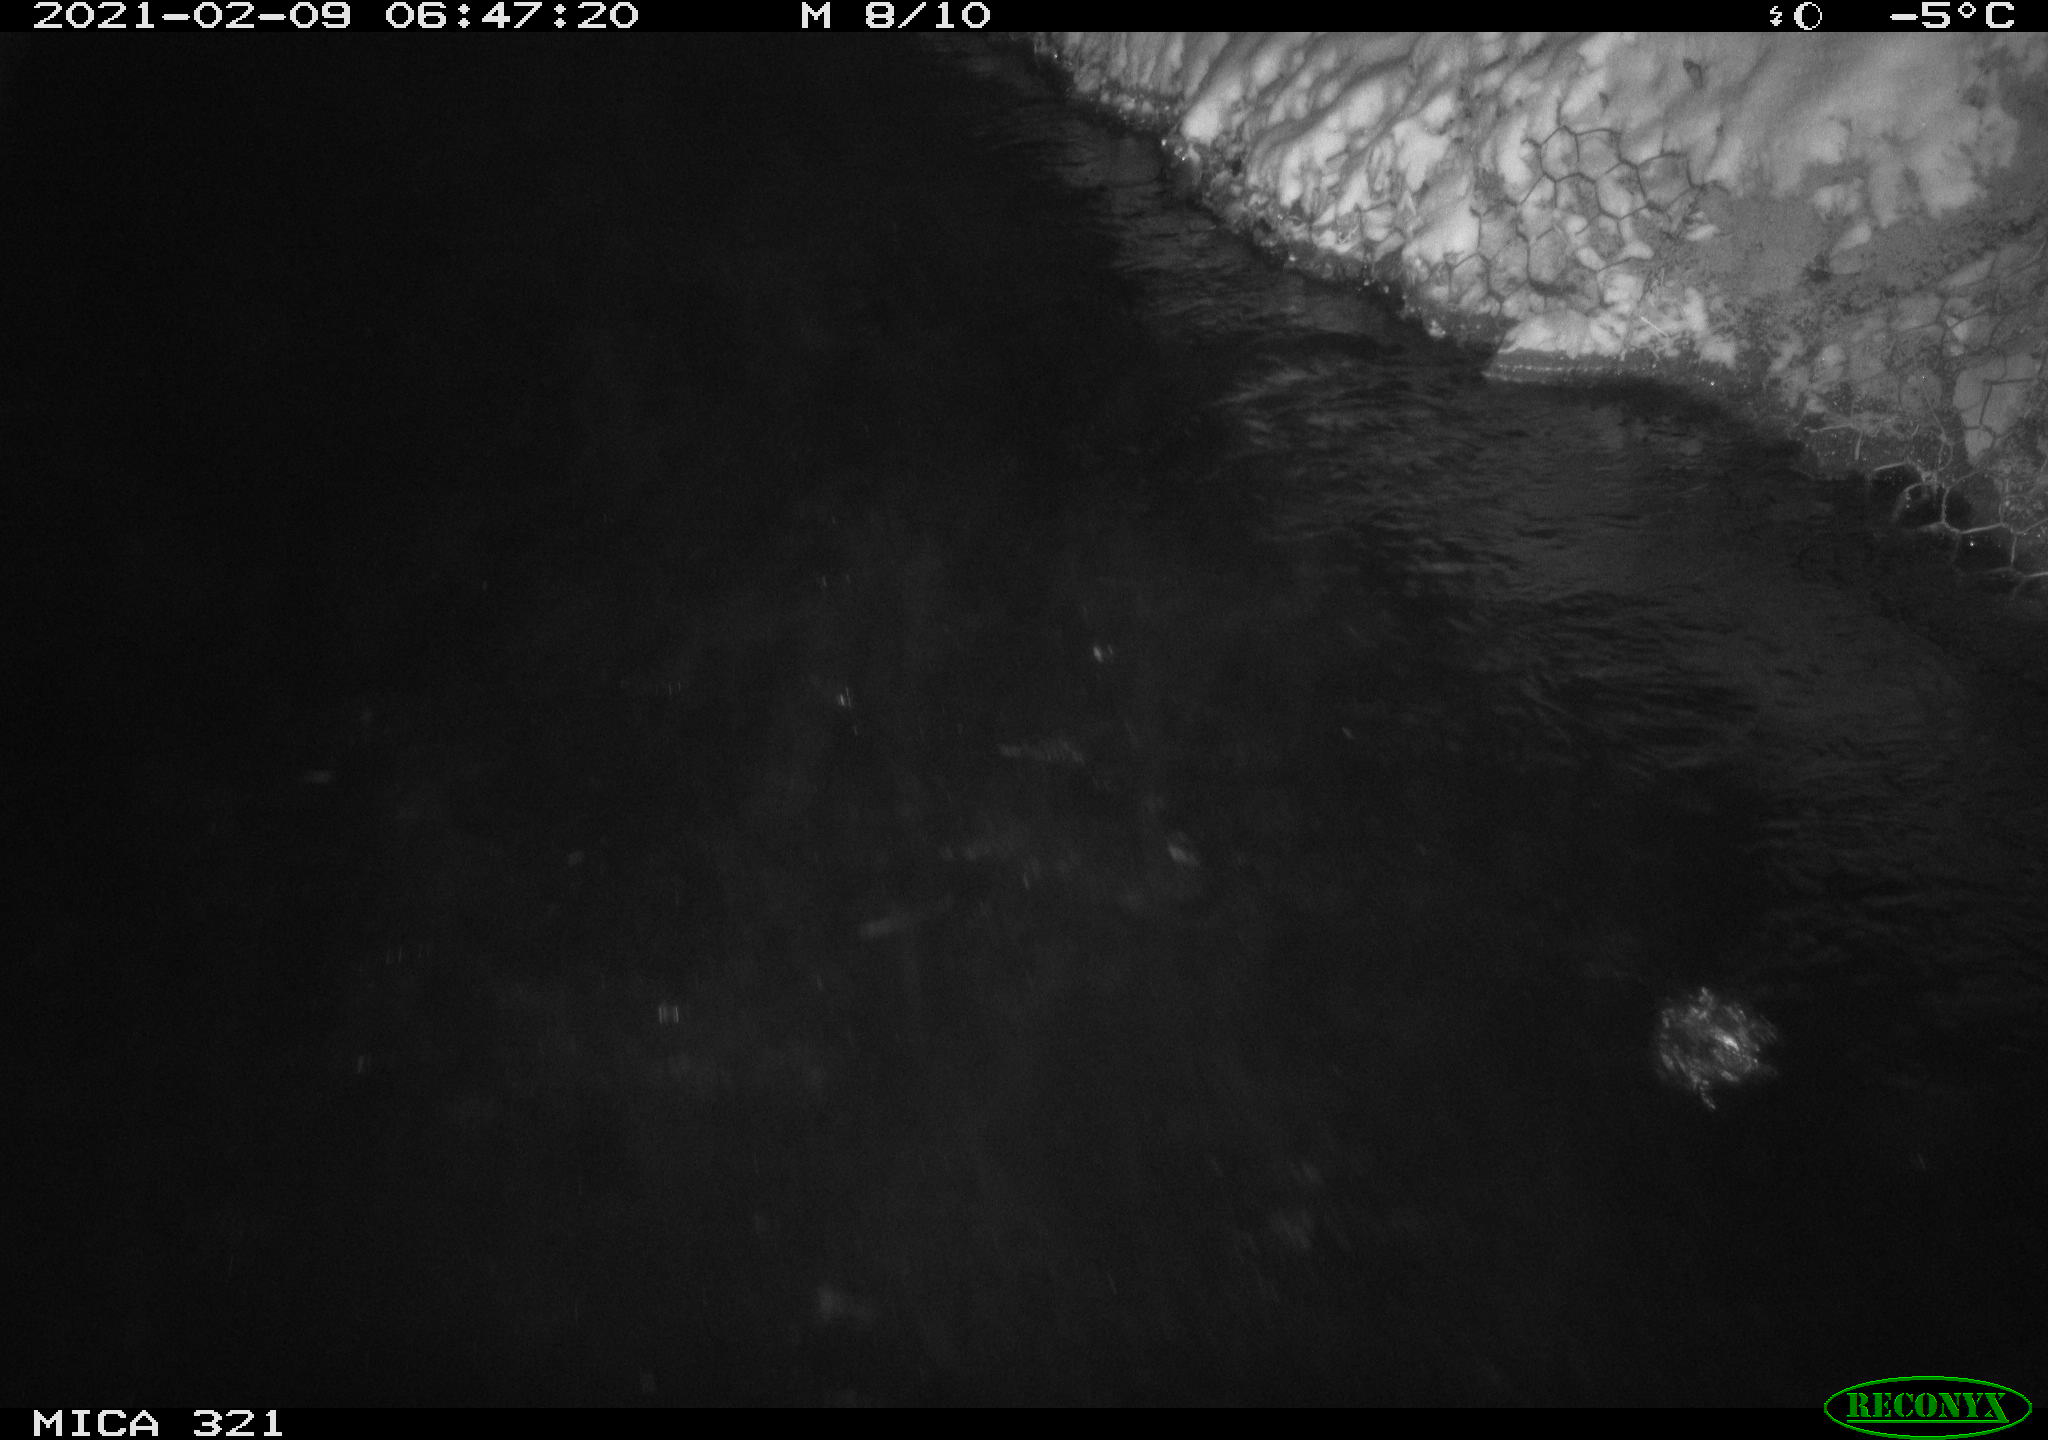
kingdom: Animalia
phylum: Chordata
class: Aves
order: Anseriformes
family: Anatidae
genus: Anas
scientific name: Anas platyrhynchos
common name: Mallard
